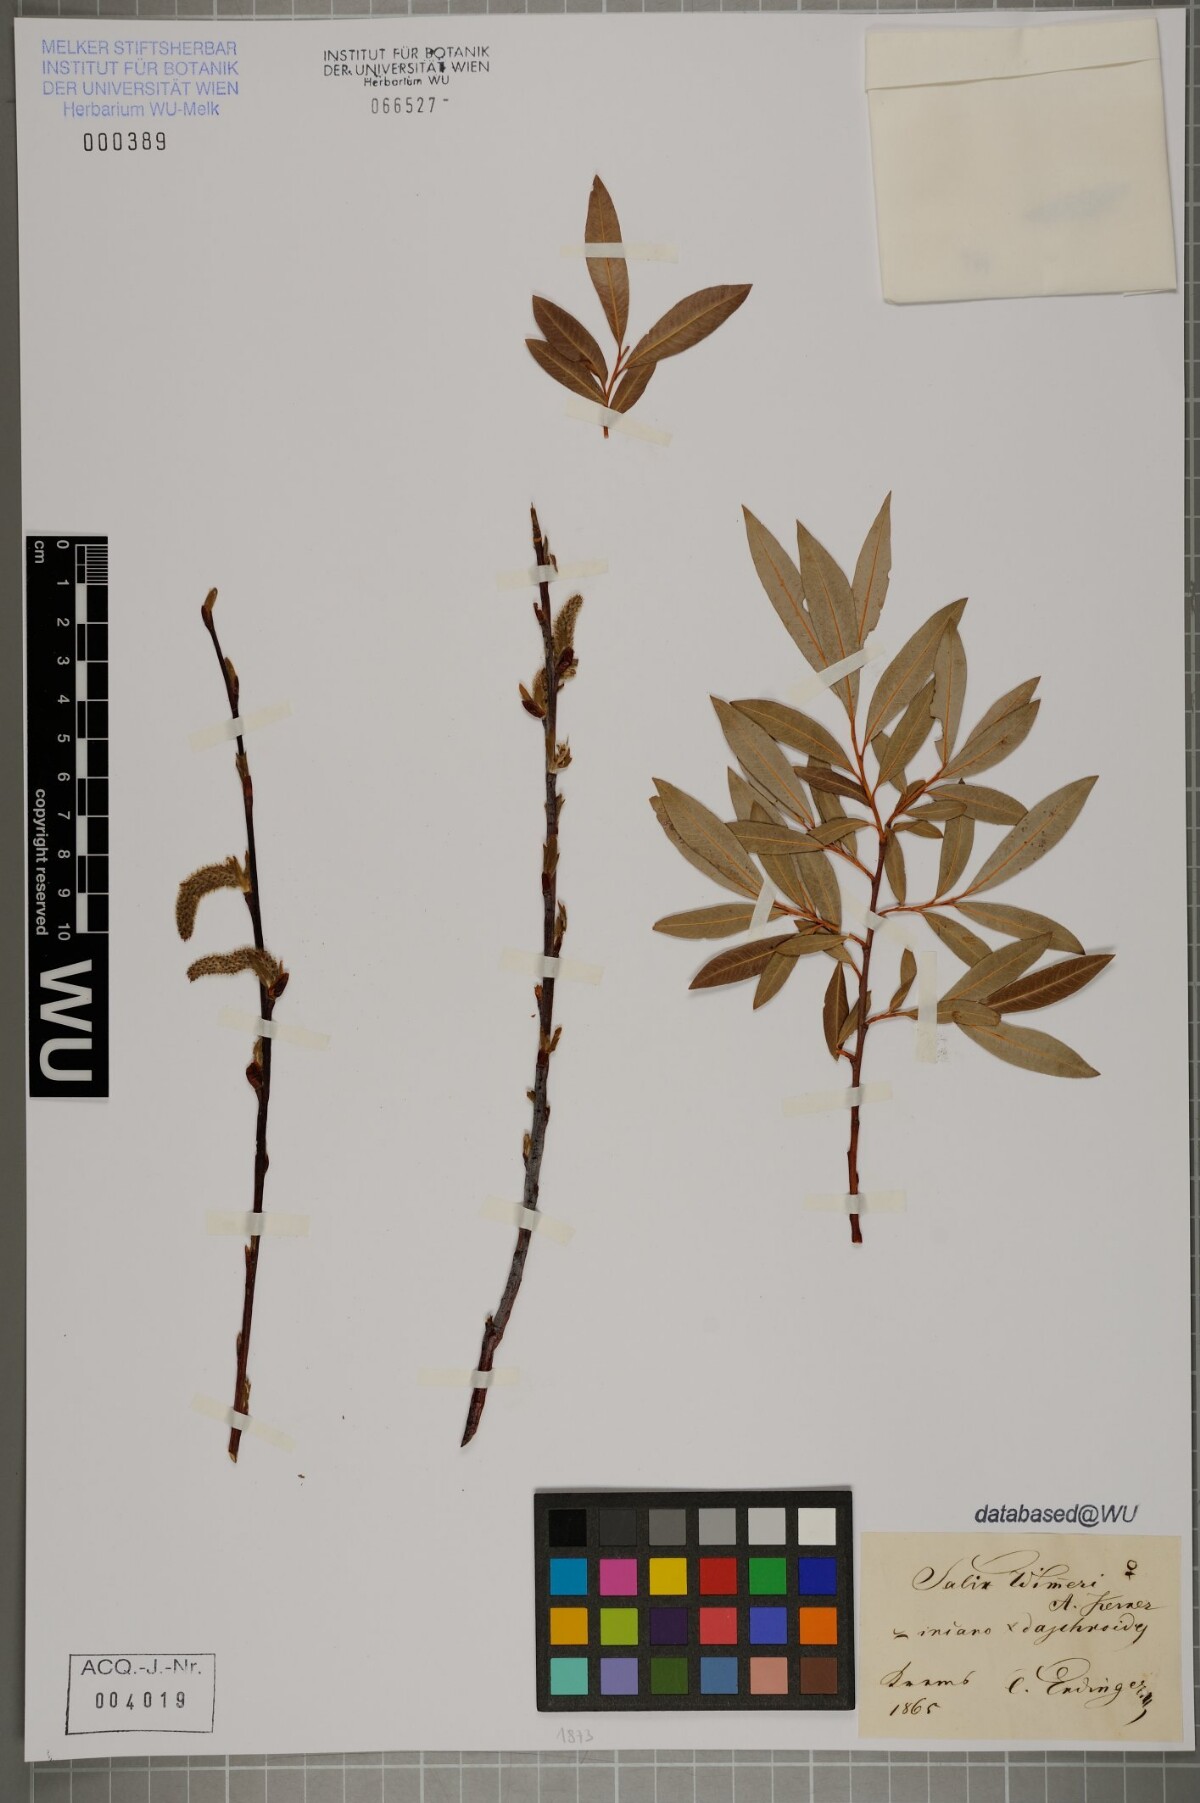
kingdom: Plantae
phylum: Tracheophyta
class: Magnoliopsida
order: Malpighiales
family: Salicaceae
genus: Salix
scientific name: Salix reuteri
